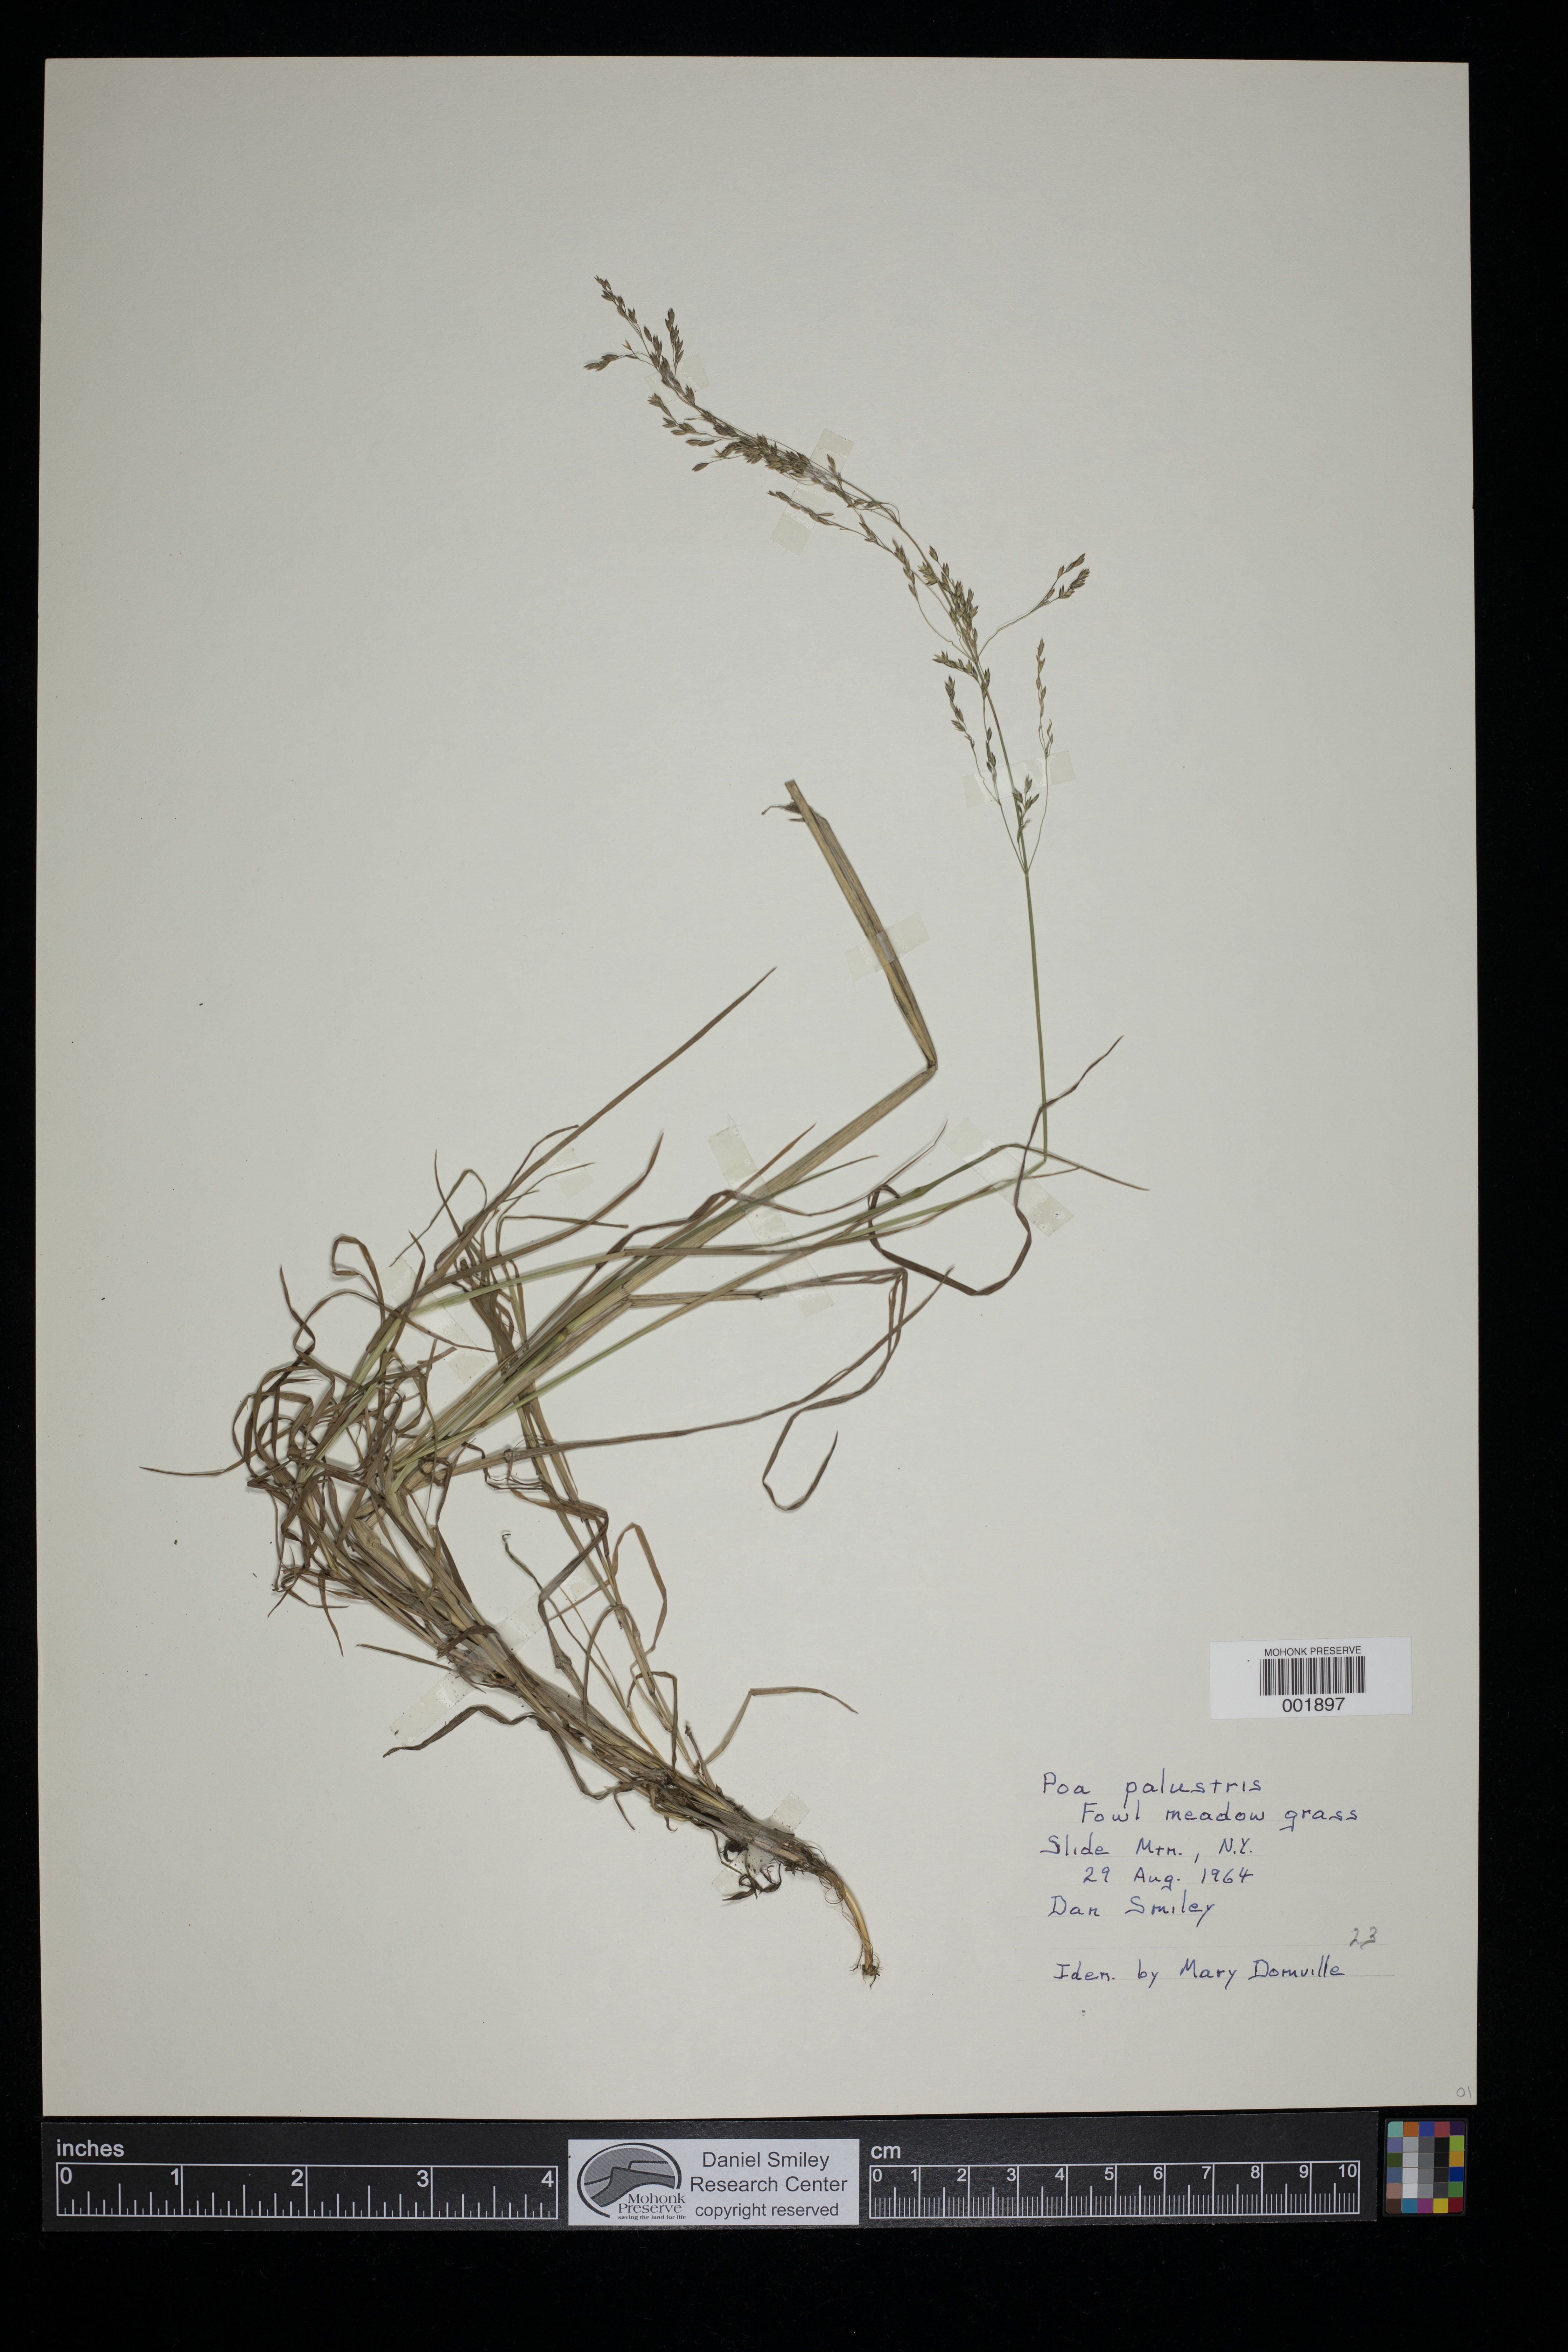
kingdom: Plantae
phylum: Tracheophyta
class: Liliopsida
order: Poales
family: Poaceae
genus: Poa
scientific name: Poa palustris
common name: Swamp meadow-grass
